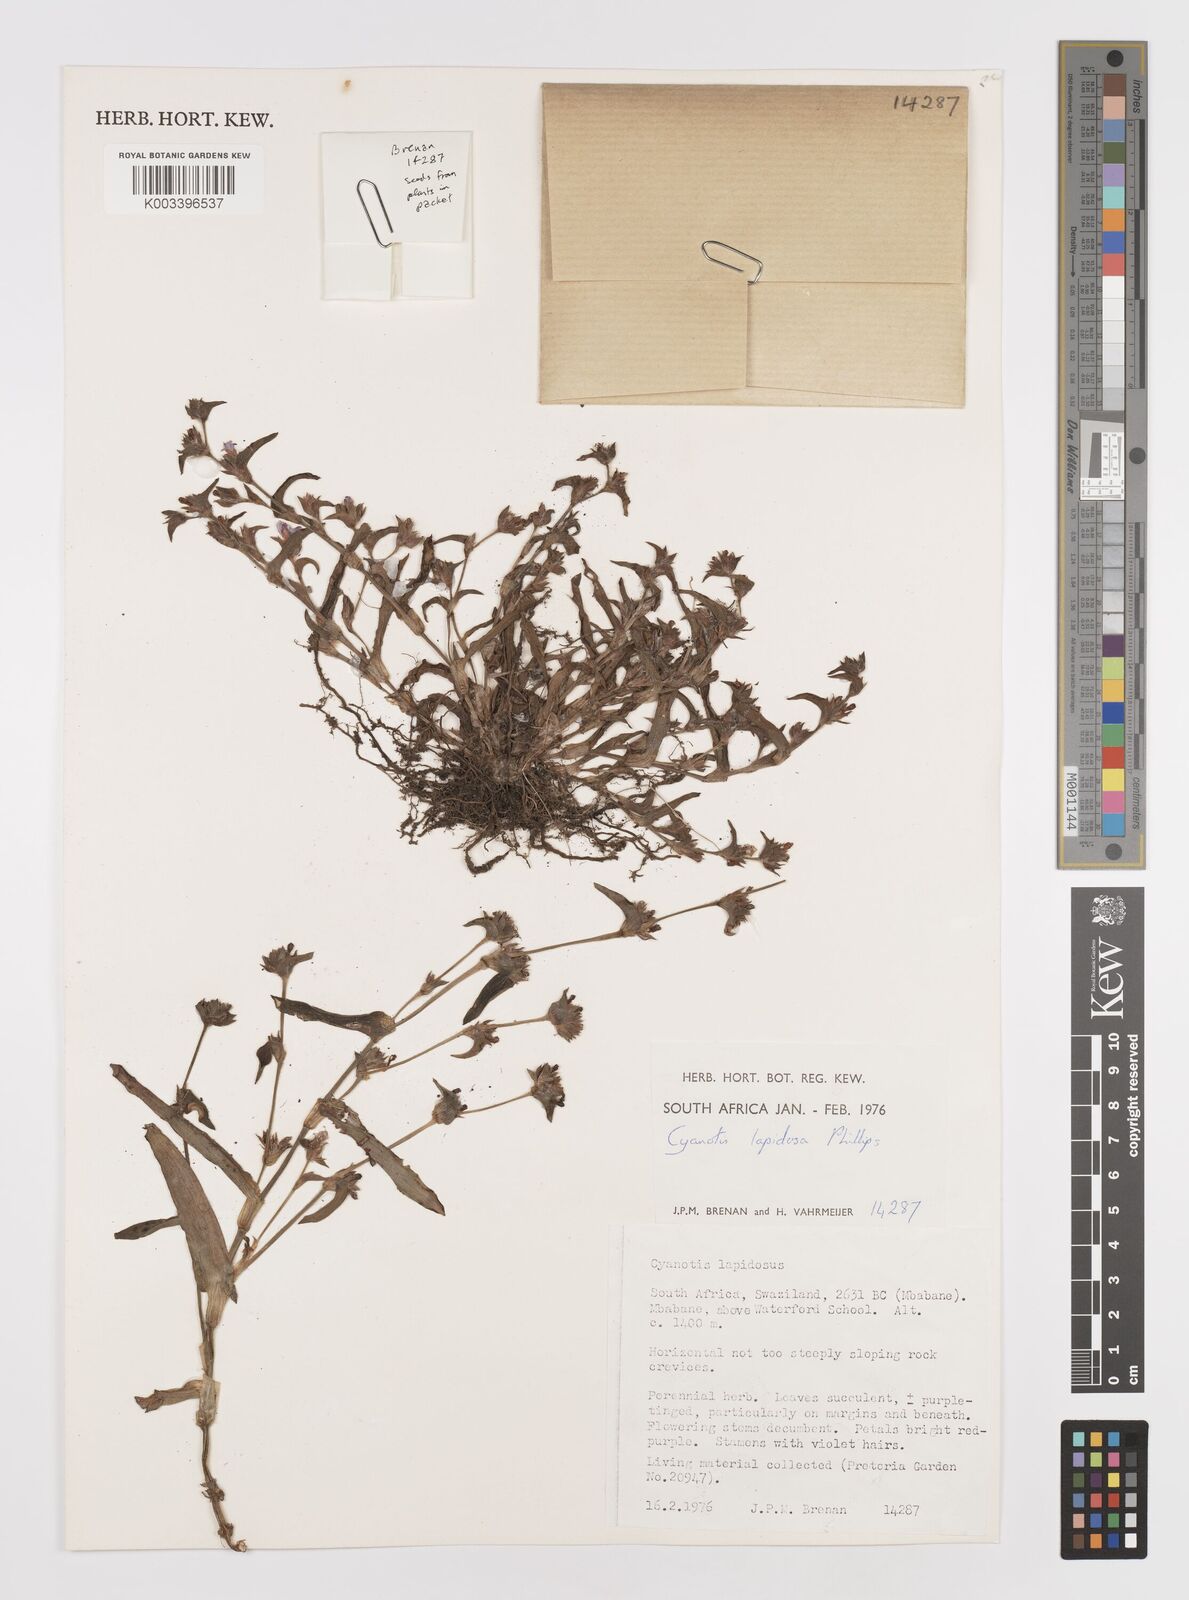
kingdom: Plantae
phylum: Tracheophyta
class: Liliopsida
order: Commelinales
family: Commelinaceae
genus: Cyanotis
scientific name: Cyanotis lapidosa
